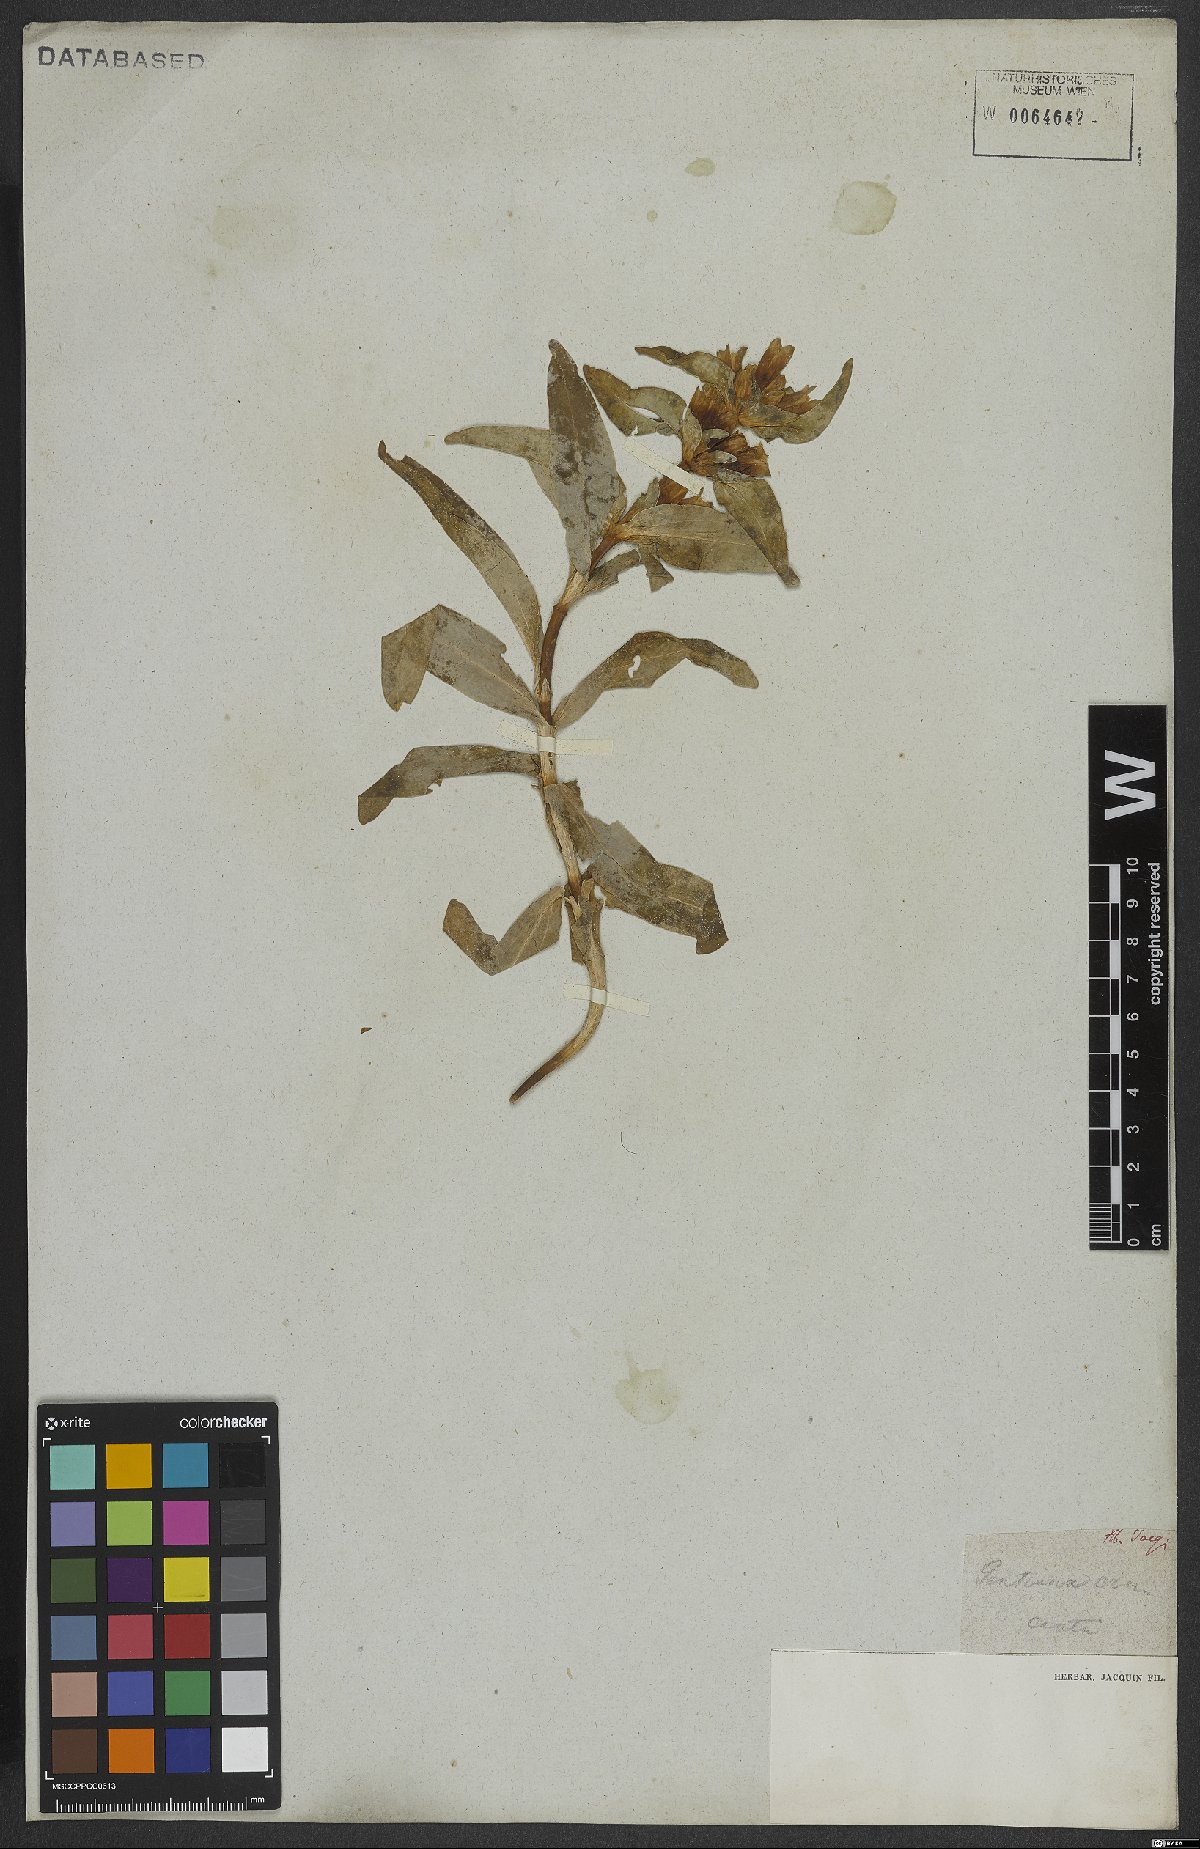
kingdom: Plantae
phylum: Tracheophyta
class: Magnoliopsida
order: Gentianales
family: Gentianaceae
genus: Gentiana
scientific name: Gentiana cruciata
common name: Cross gentian
